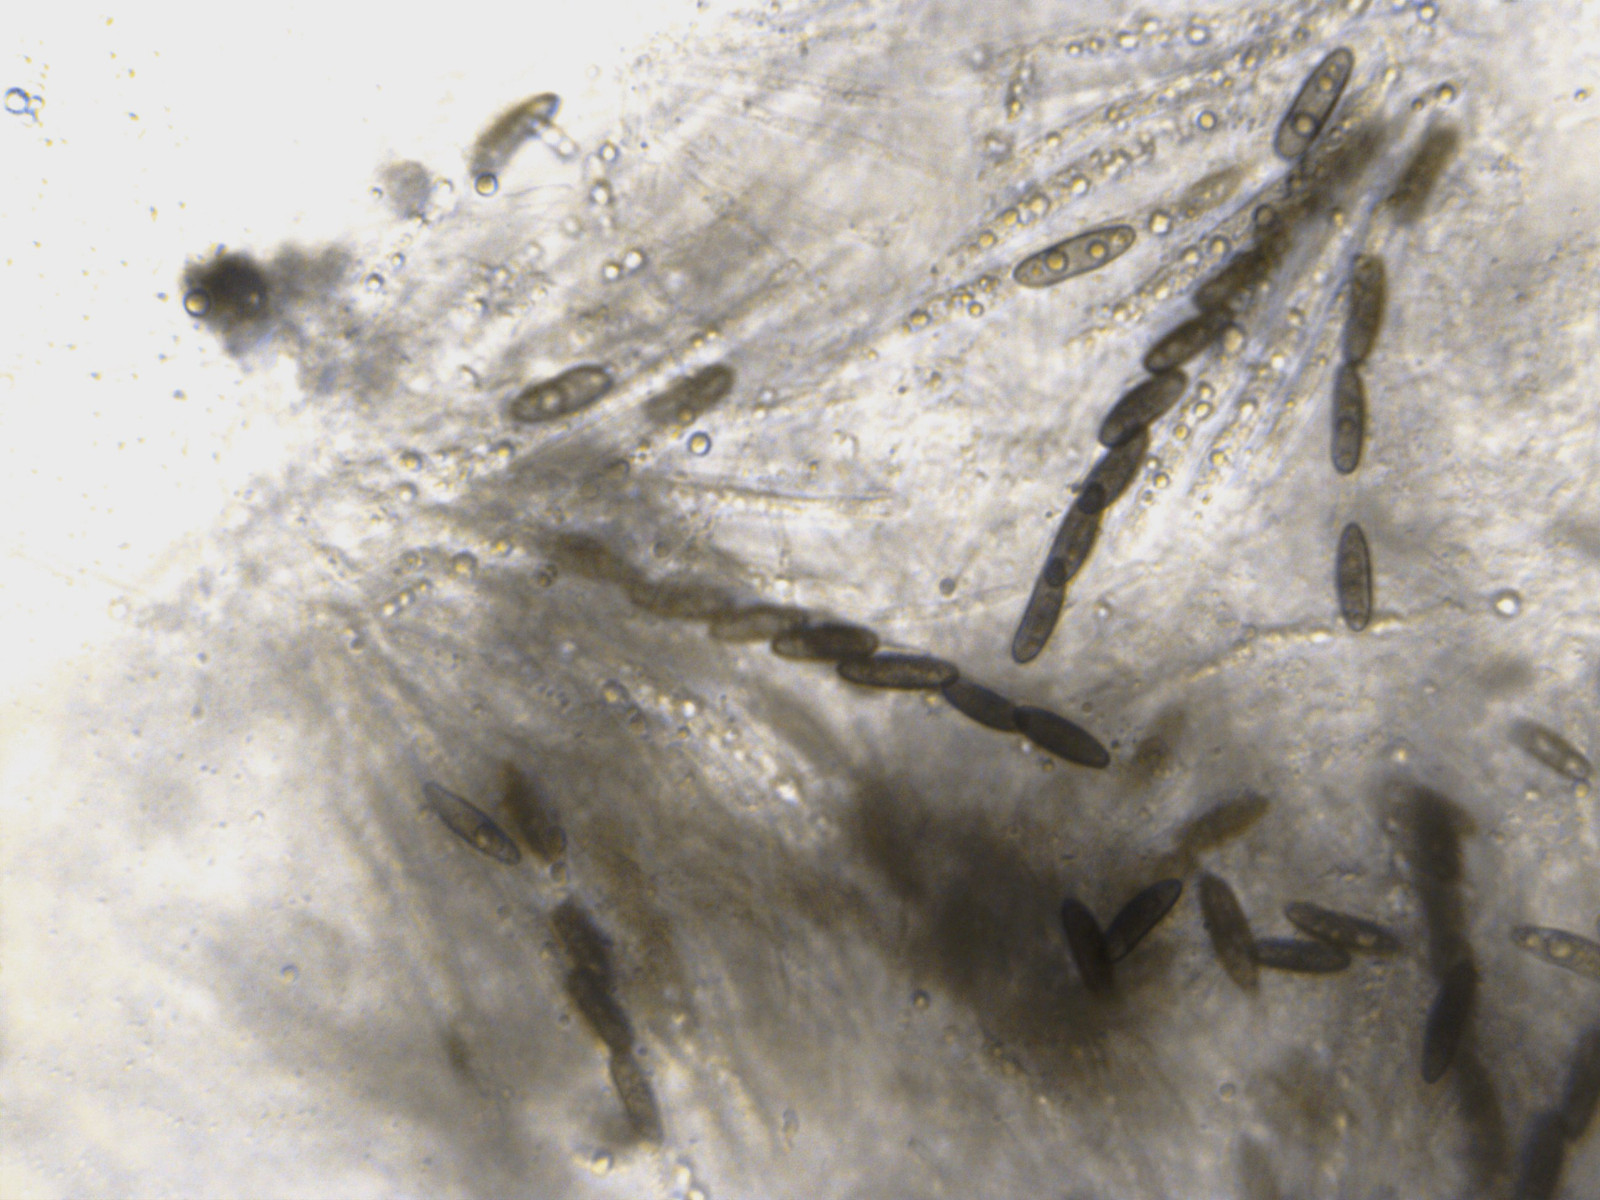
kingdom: Fungi
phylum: Ascomycota
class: Sordariomycetes
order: Amphisphaeriales
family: Clypeosphaeriaceae
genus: Clypeosphaeria
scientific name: Clypeosphaeria mamillana
